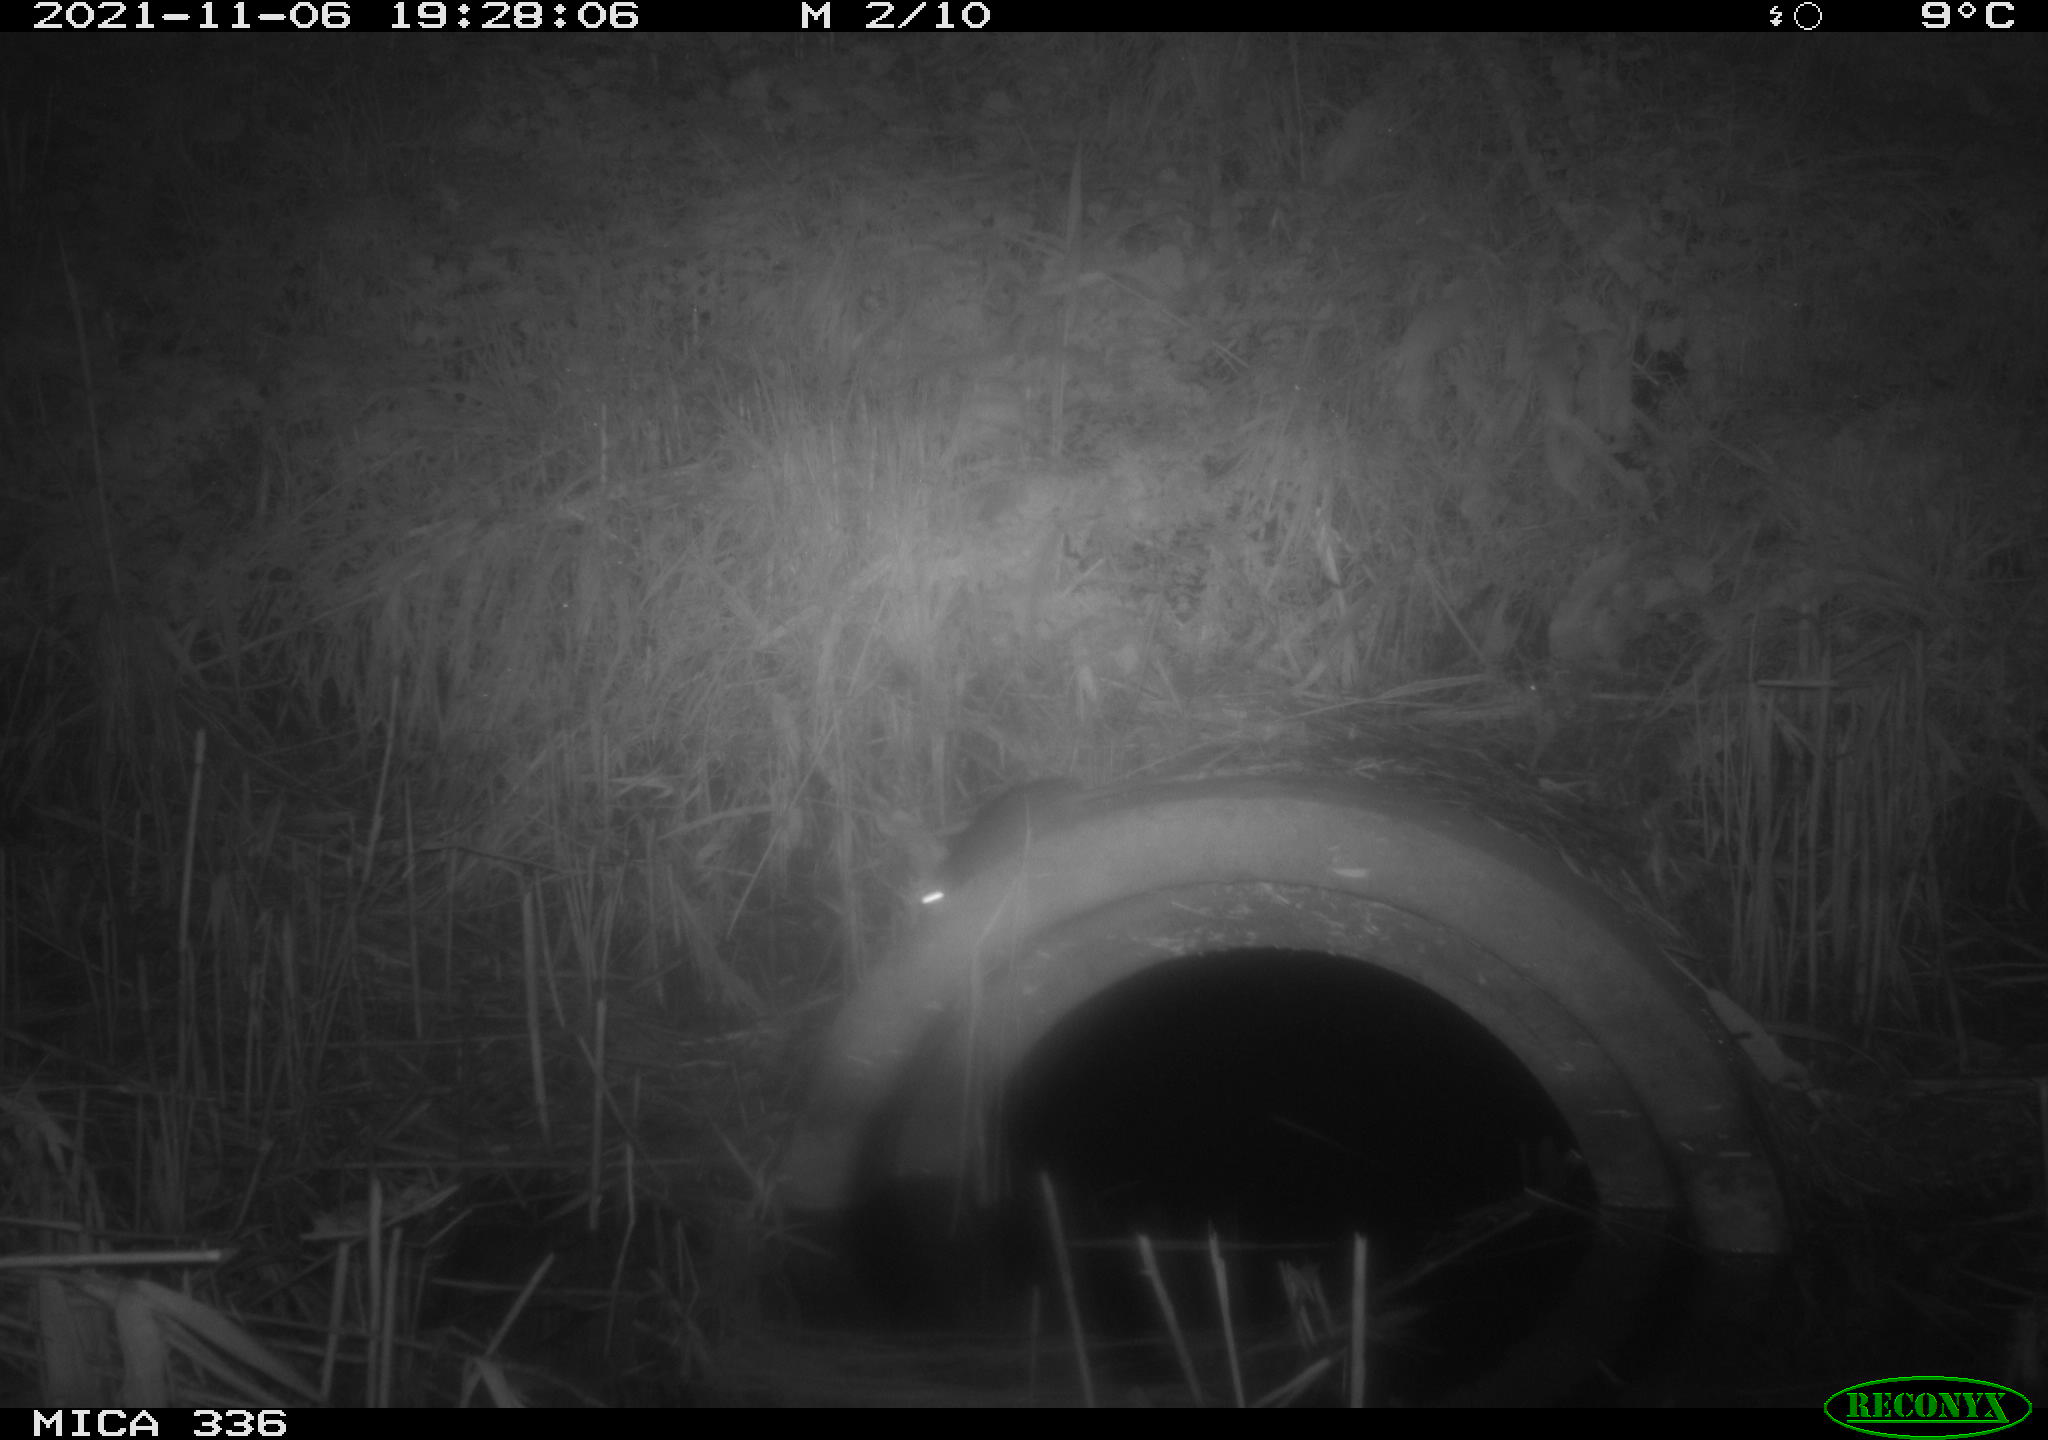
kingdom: Animalia
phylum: Chordata
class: Mammalia
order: Rodentia
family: Muridae
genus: Rattus
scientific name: Rattus norvegicus
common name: Brown rat
